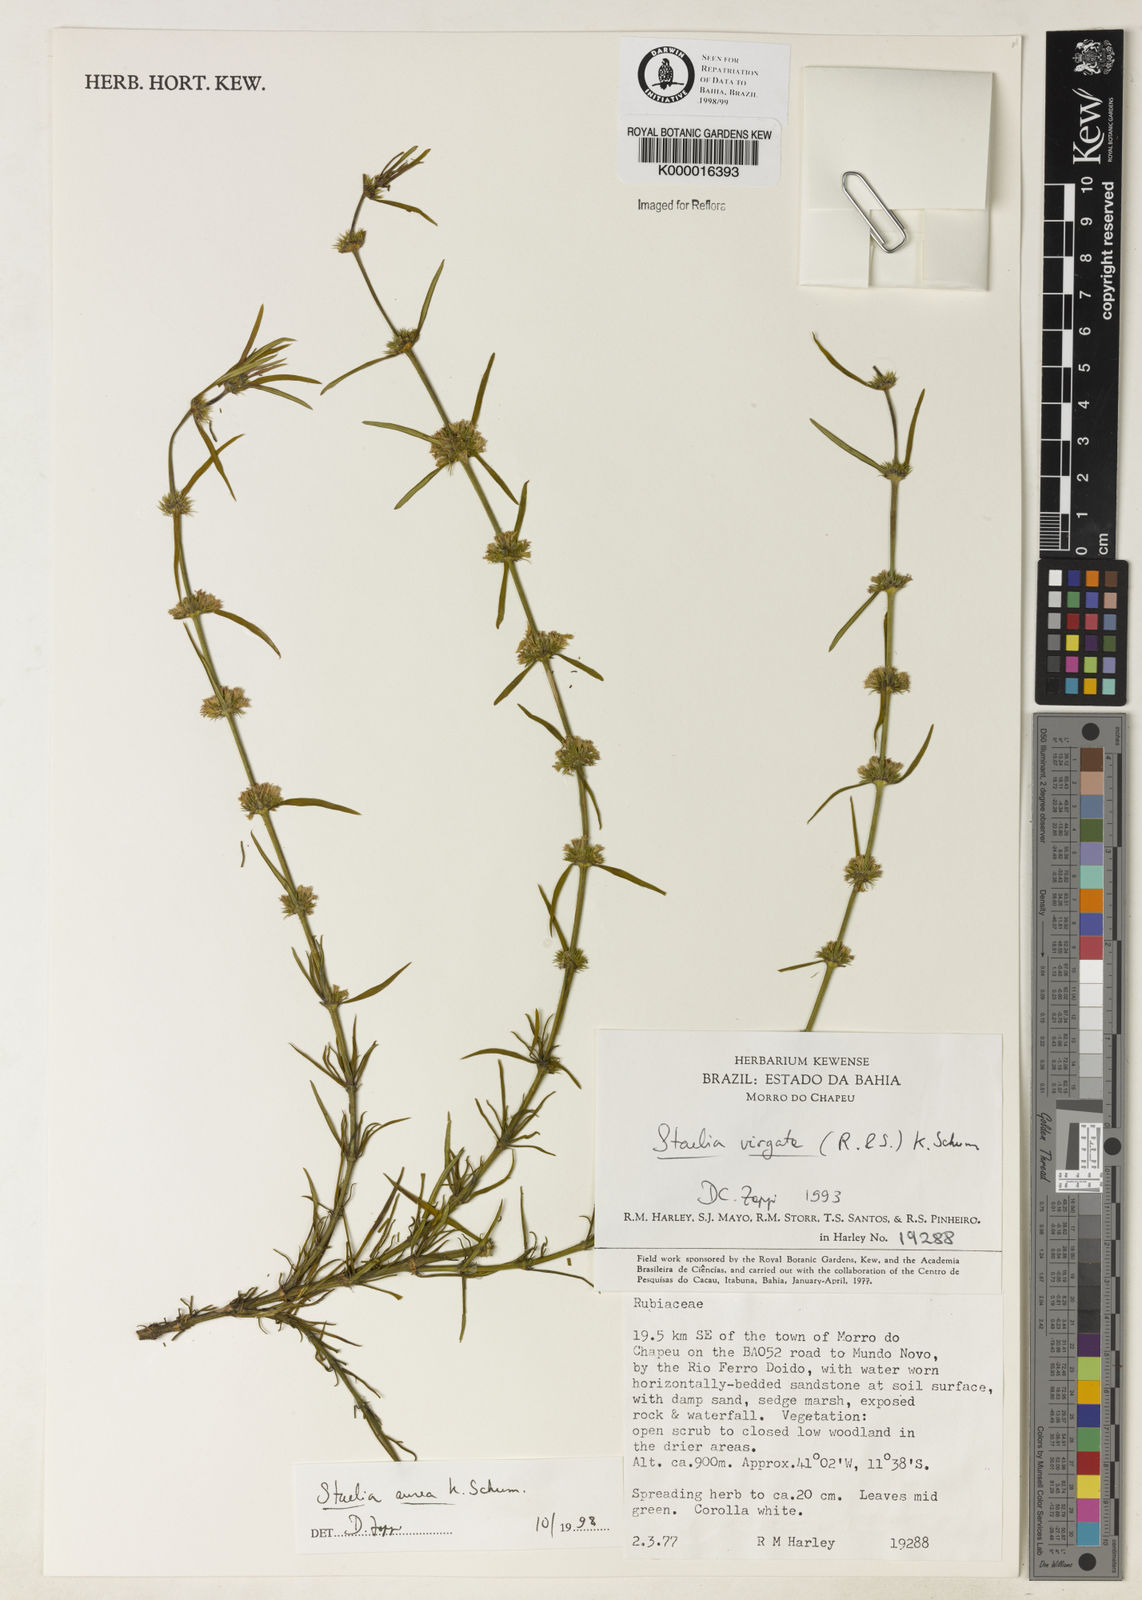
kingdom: Plantae
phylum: Tracheophyta
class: Magnoliopsida
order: Gentianales
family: Rubiaceae
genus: Staelia
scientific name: Staelia aurea
